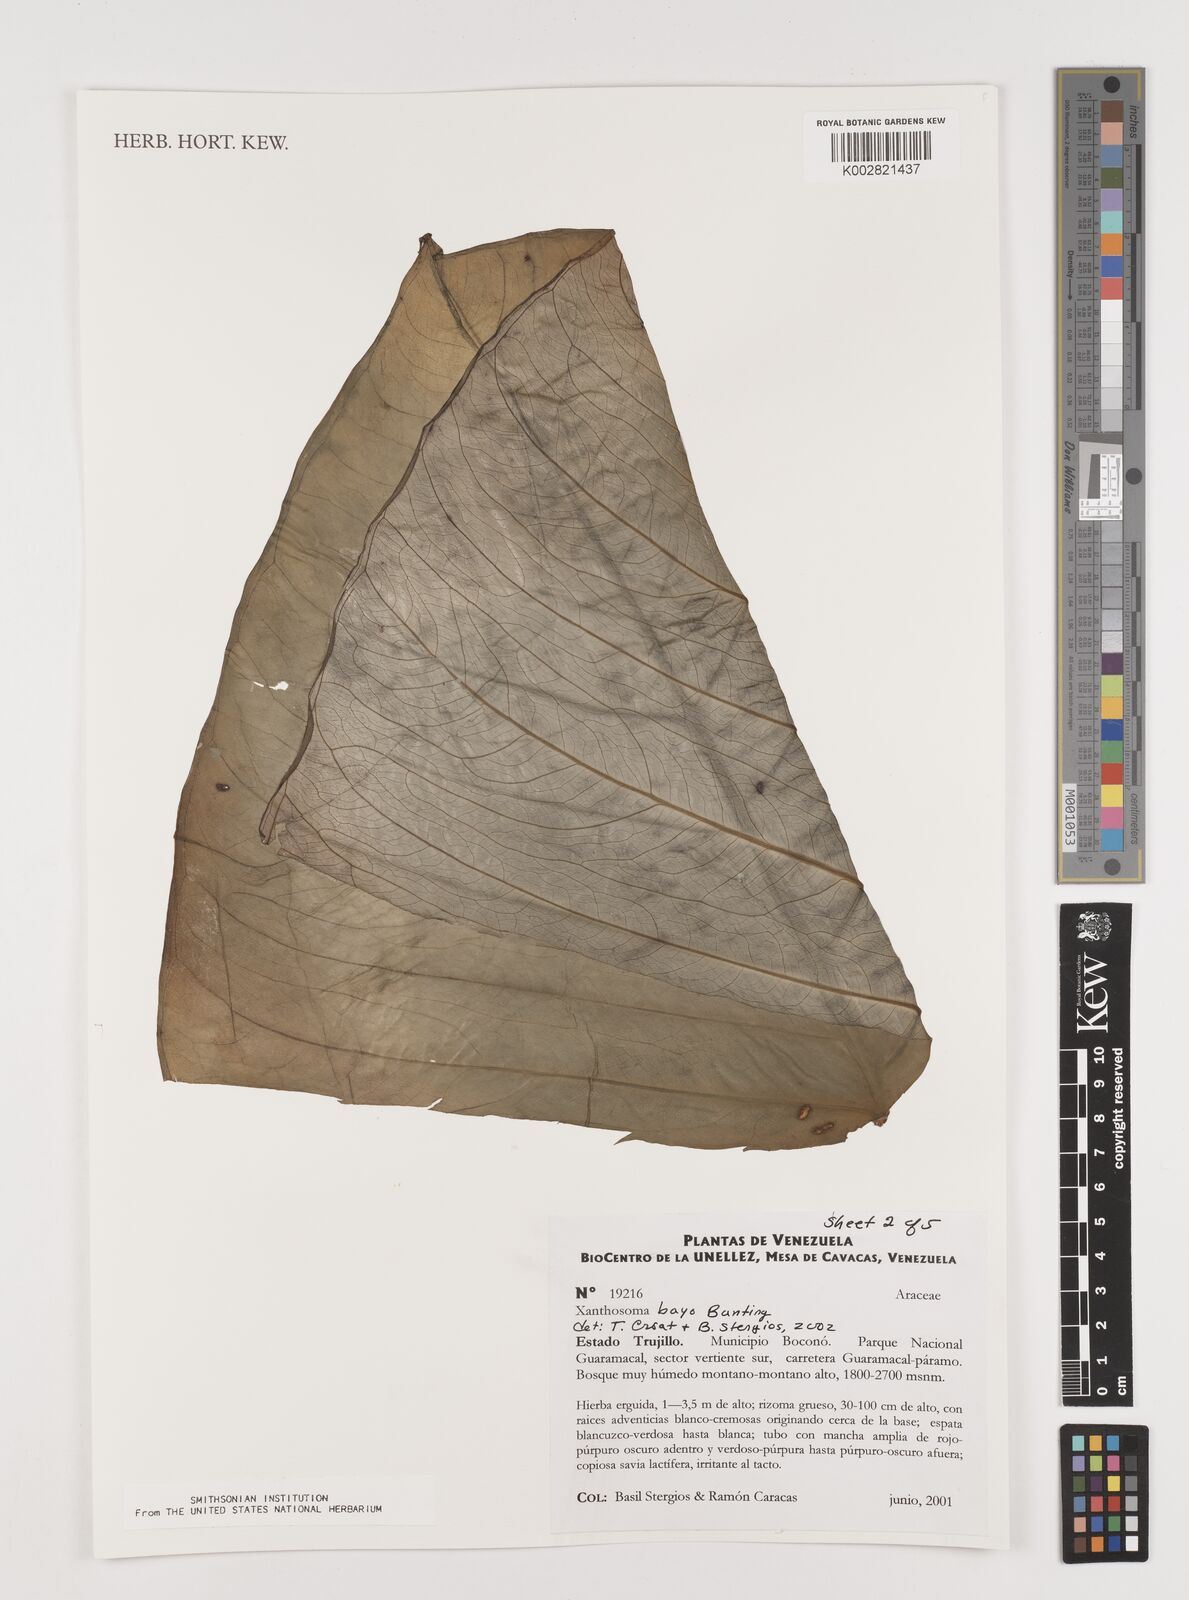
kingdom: Plantae
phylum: Tracheophyta
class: Liliopsida
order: Alismatales
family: Araceae
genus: Xanthosoma
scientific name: Xanthosoma bayo
